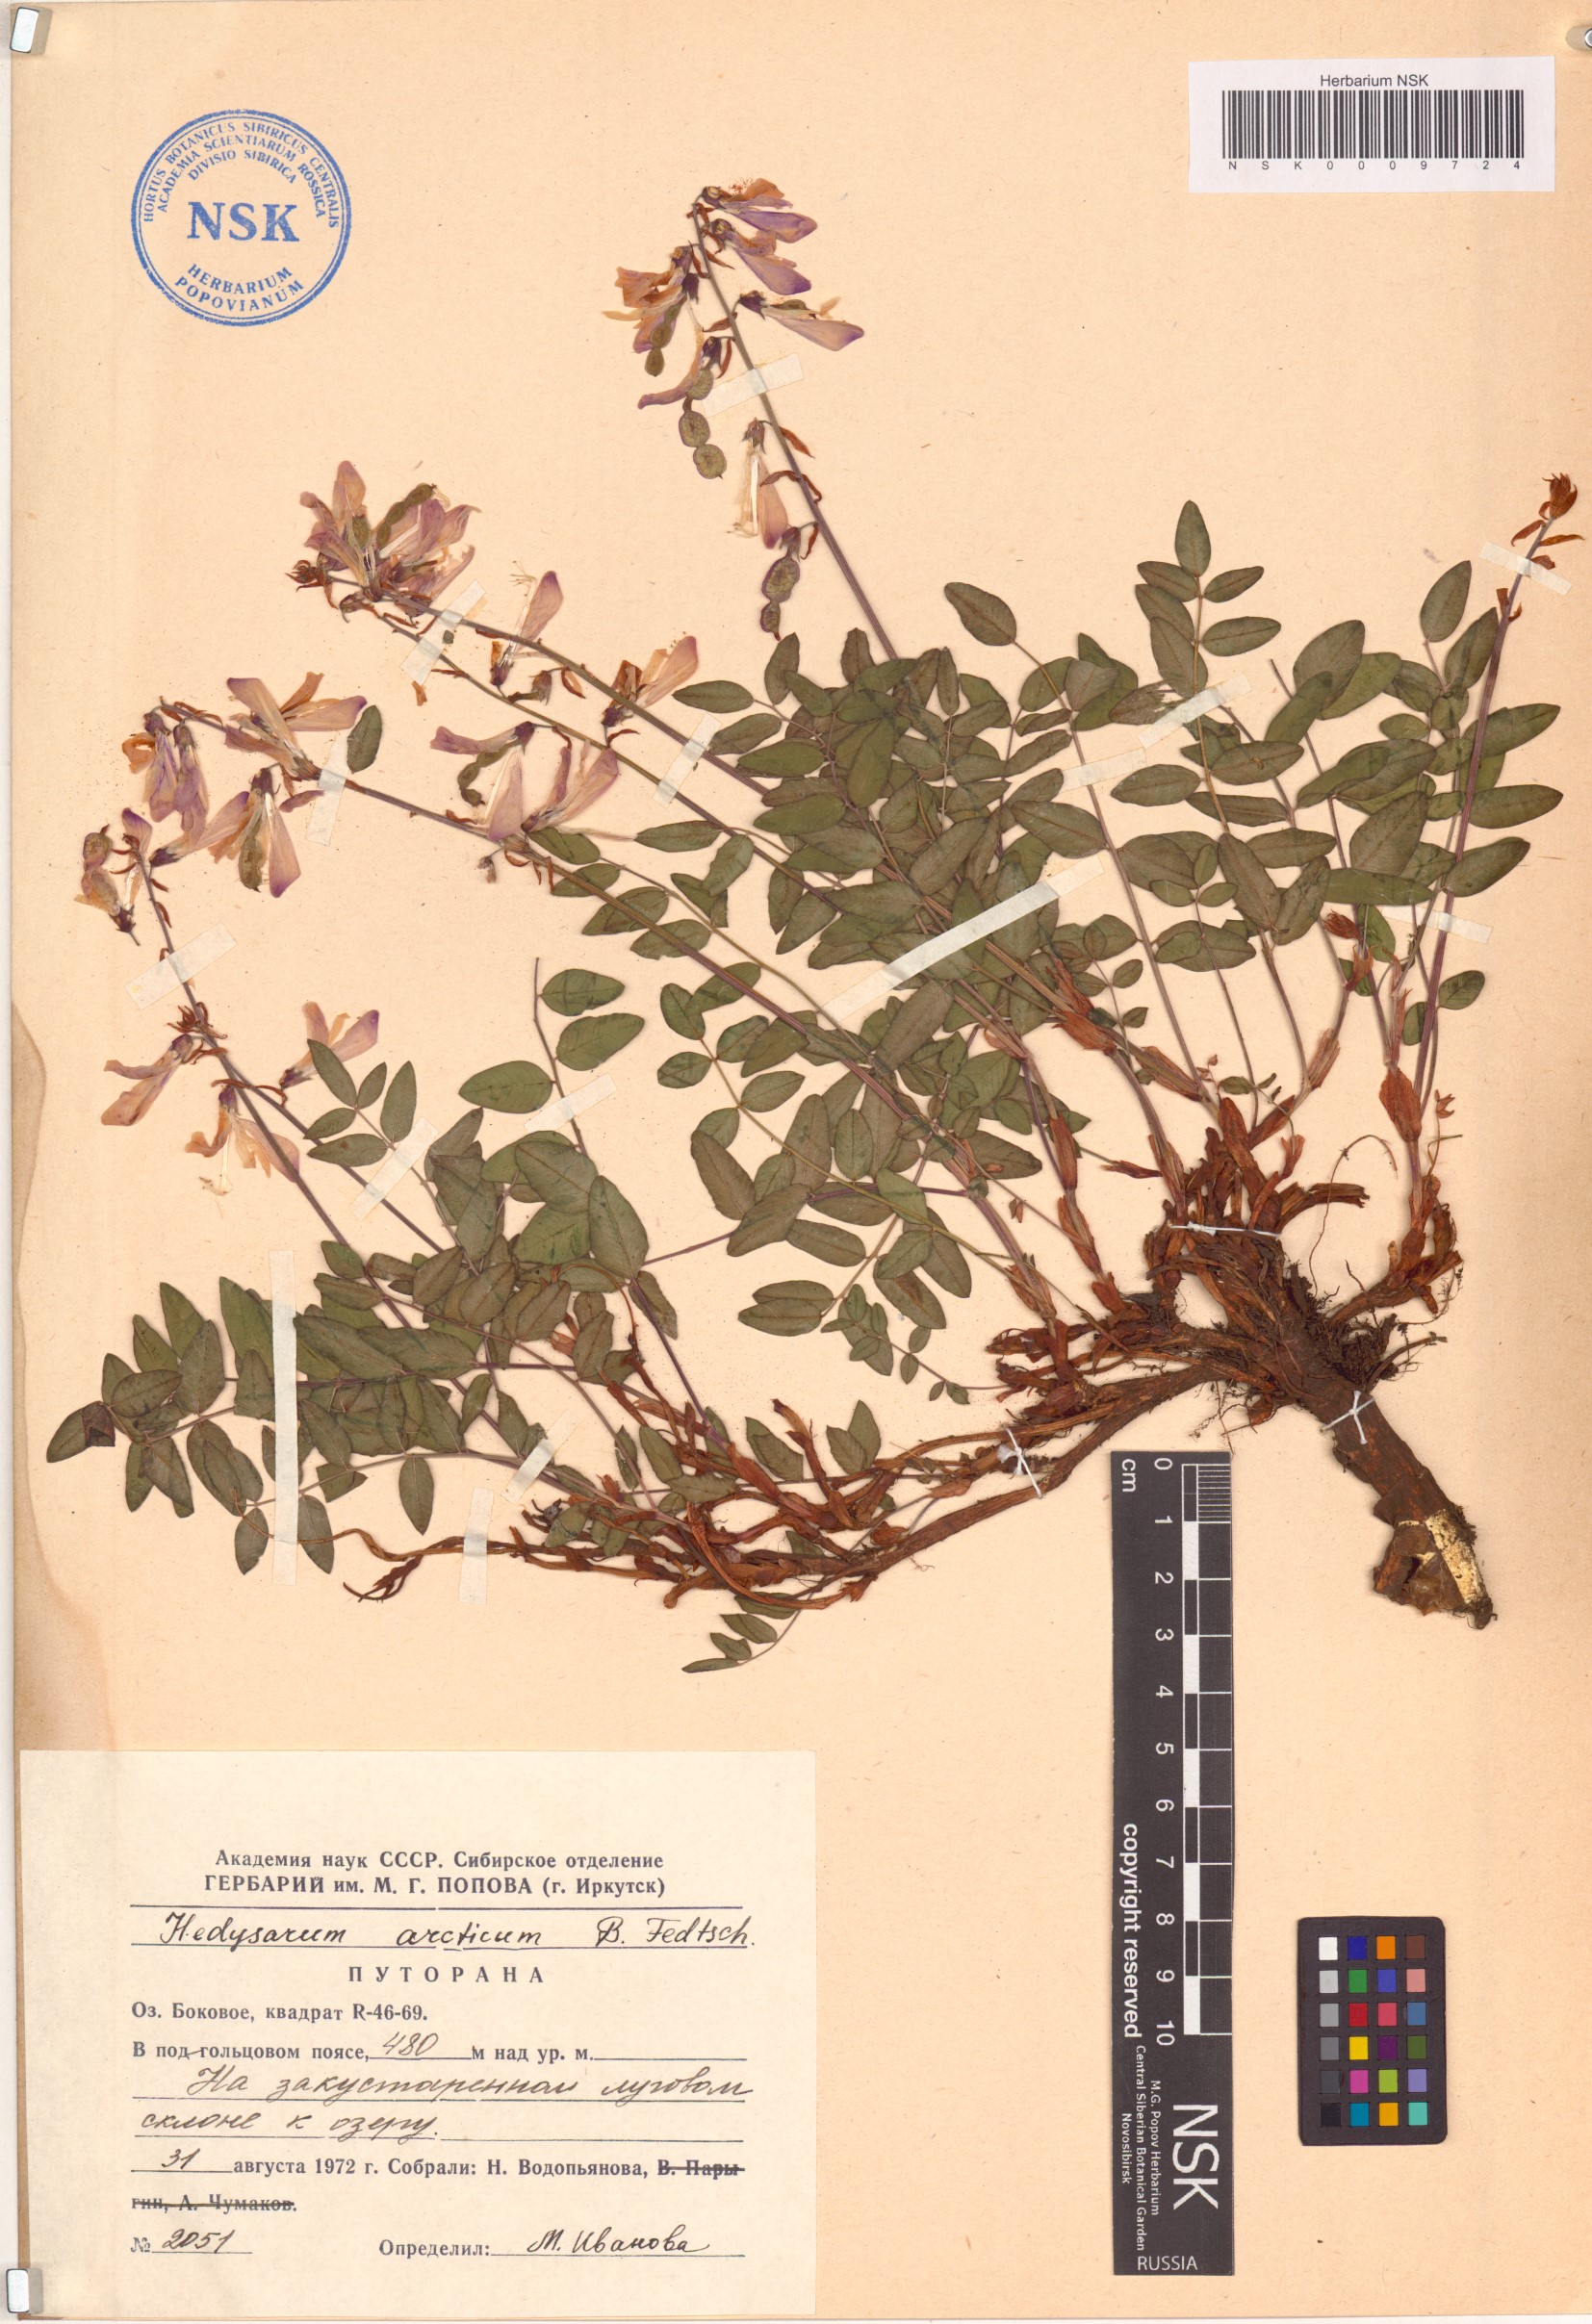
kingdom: Plantae
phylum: Tracheophyta
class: Magnoliopsida
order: Fabales
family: Fabaceae
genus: Hedysarum
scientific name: Hedysarum hedysaroides
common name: Alpine french-honeysuckle
